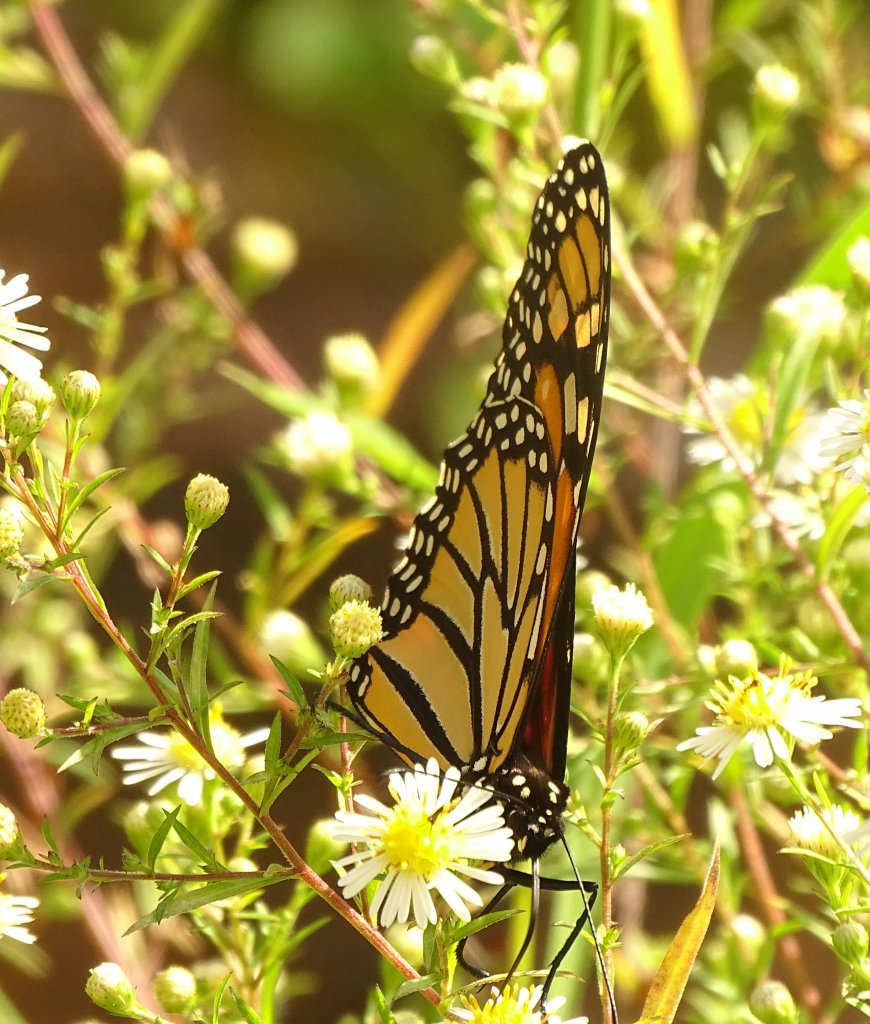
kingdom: Animalia
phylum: Arthropoda
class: Insecta
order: Lepidoptera
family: Nymphalidae
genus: Danaus
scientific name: Danaus plexippus
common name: Monarch
